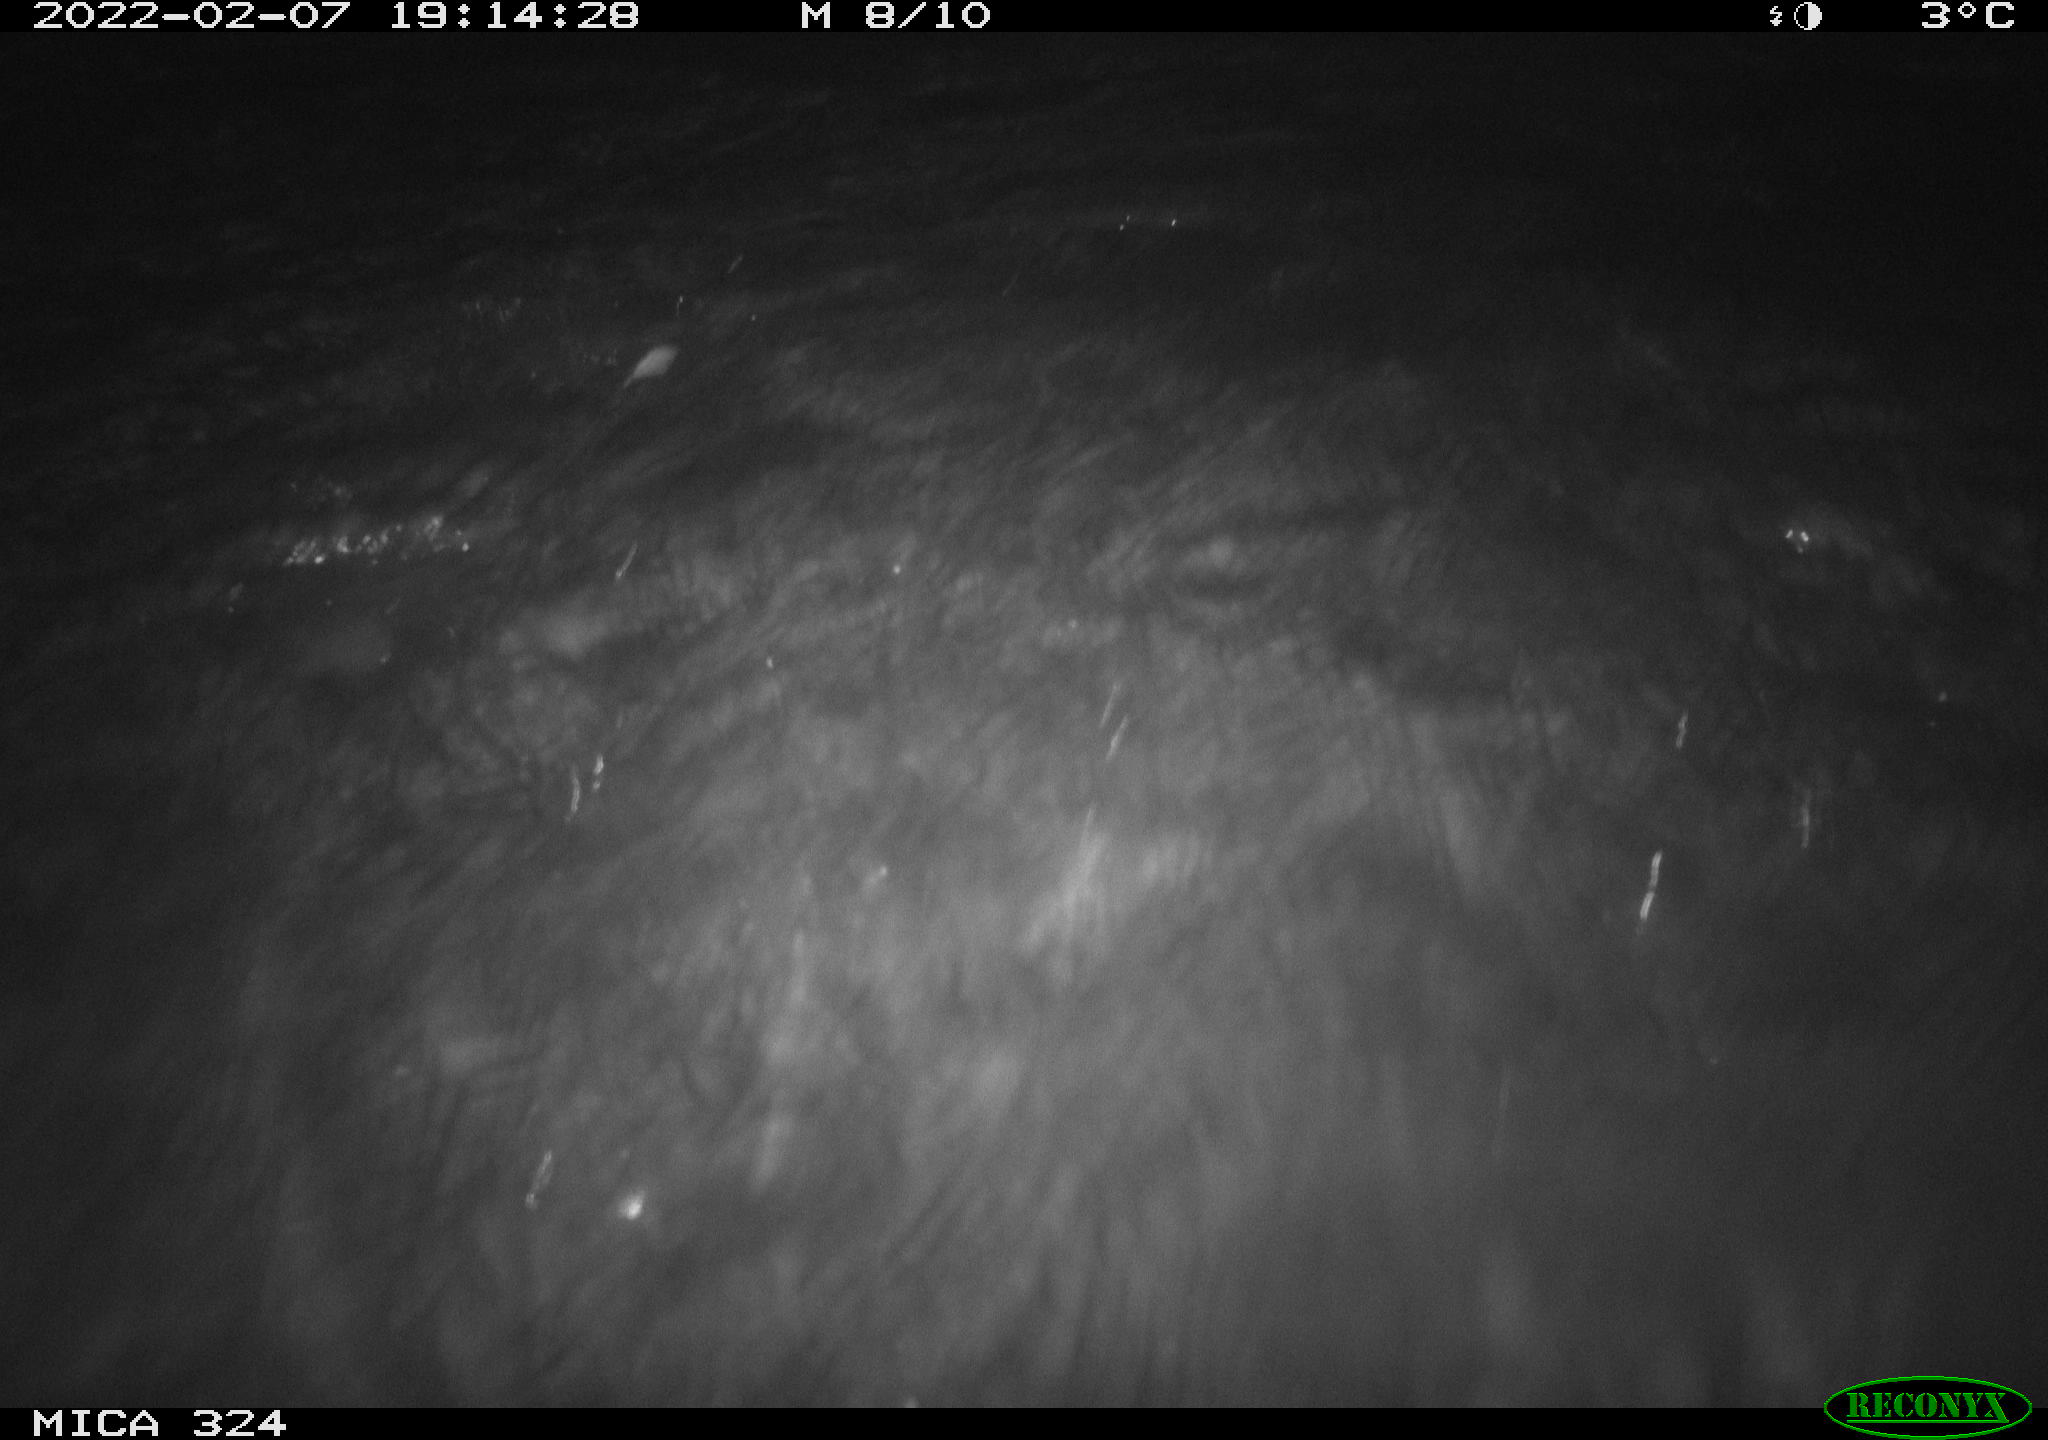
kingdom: Animalia
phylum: Chordata
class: Mammalia
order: Rodentia
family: Cricetidae
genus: Ondatra
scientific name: Ondatra zibethicus
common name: Muskrat
